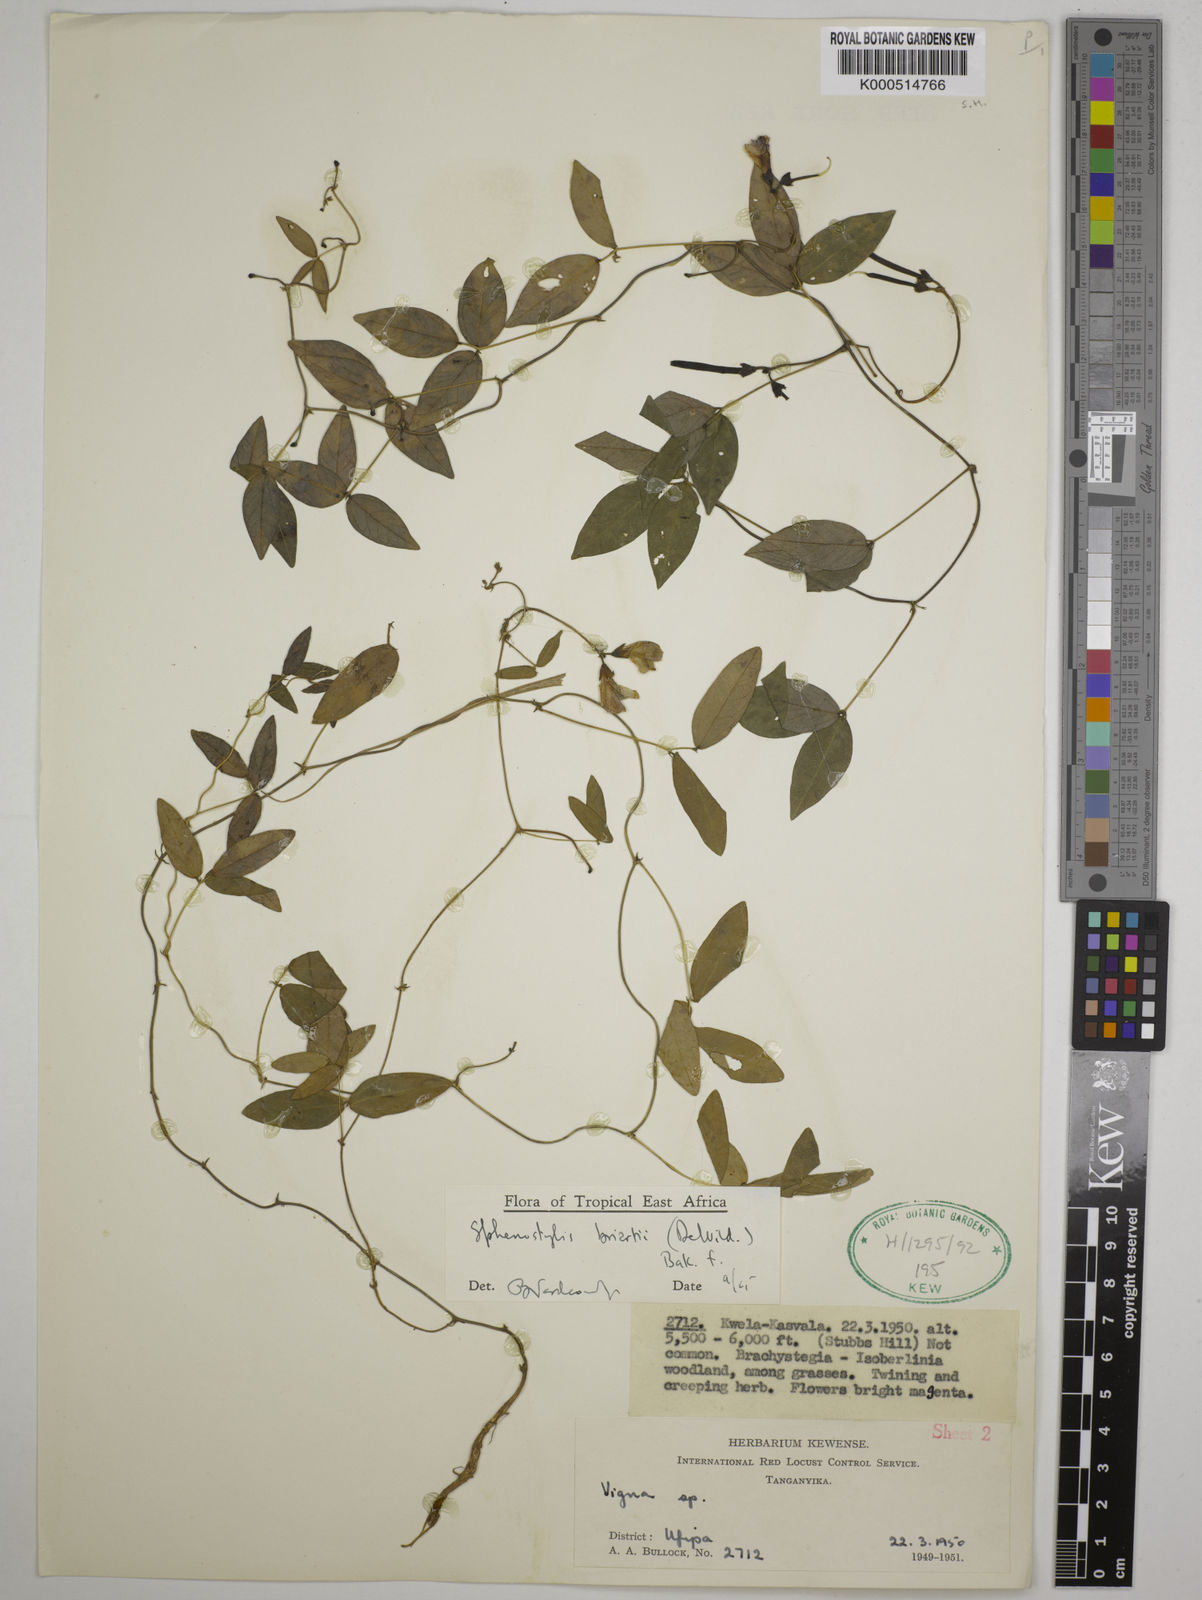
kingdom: Plantae
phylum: Tracheophyta
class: Magnoliopsida
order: Fabales
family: Fabaceae
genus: Sphenostylis
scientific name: Sphenostylis briartii
